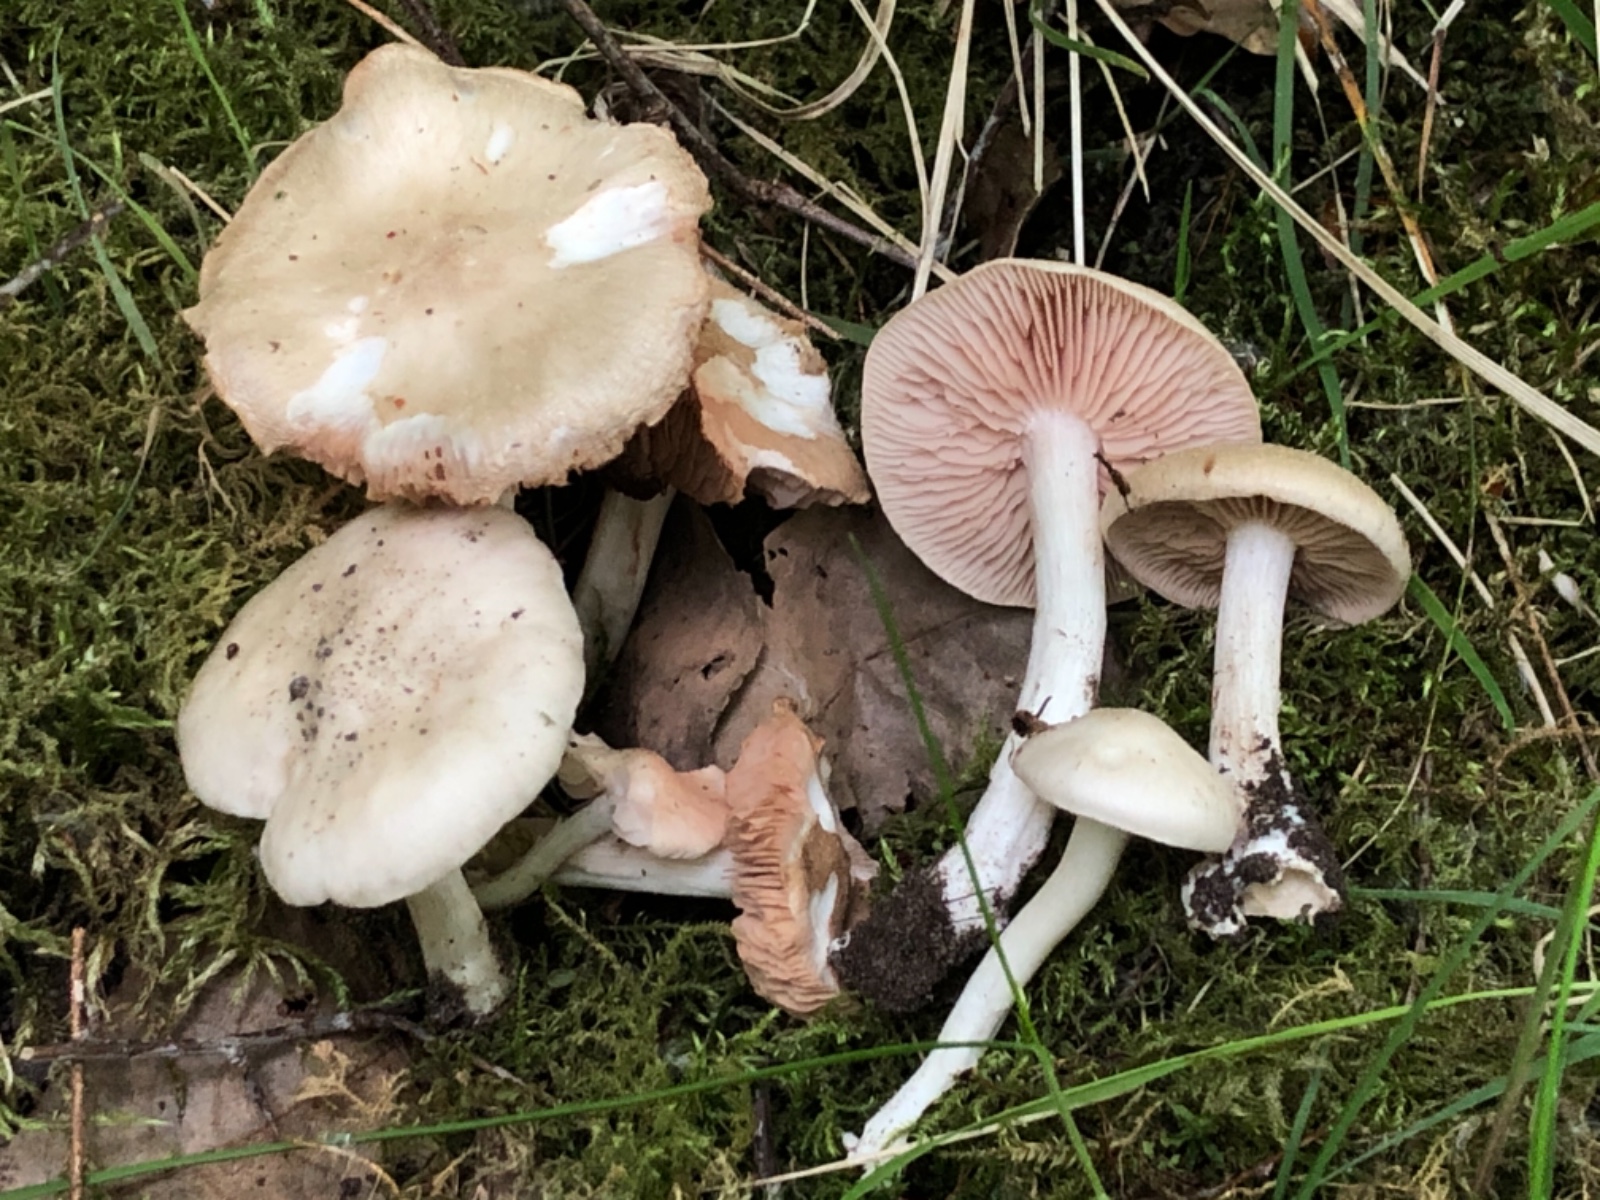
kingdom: Fungi
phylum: Basidiomycota
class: Agaricomycetes
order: Agaricales
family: Entolomataceae
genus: Entoloma
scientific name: Entoloma
